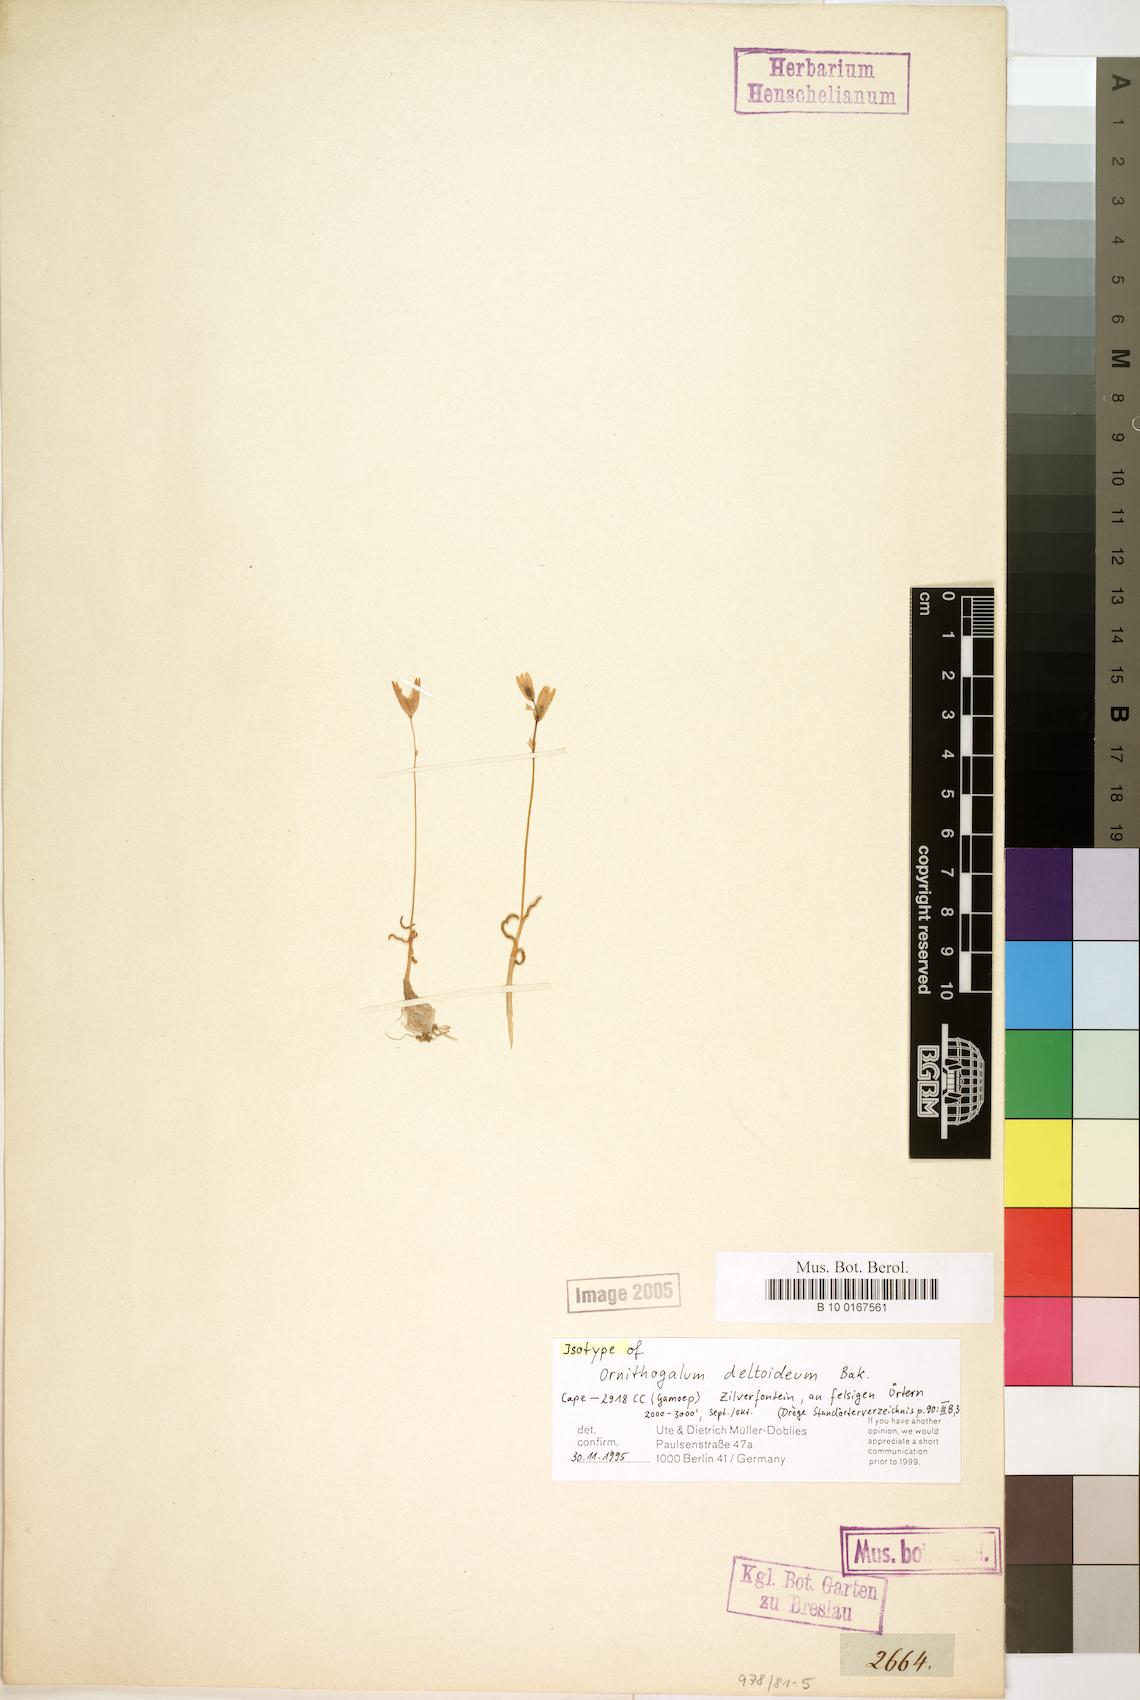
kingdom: Plantae
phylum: Tracheophyta
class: Liliopsida
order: Asparagales
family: Asparagaceae
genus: Ornithogalum
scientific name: Ornithogalum deltoideum
